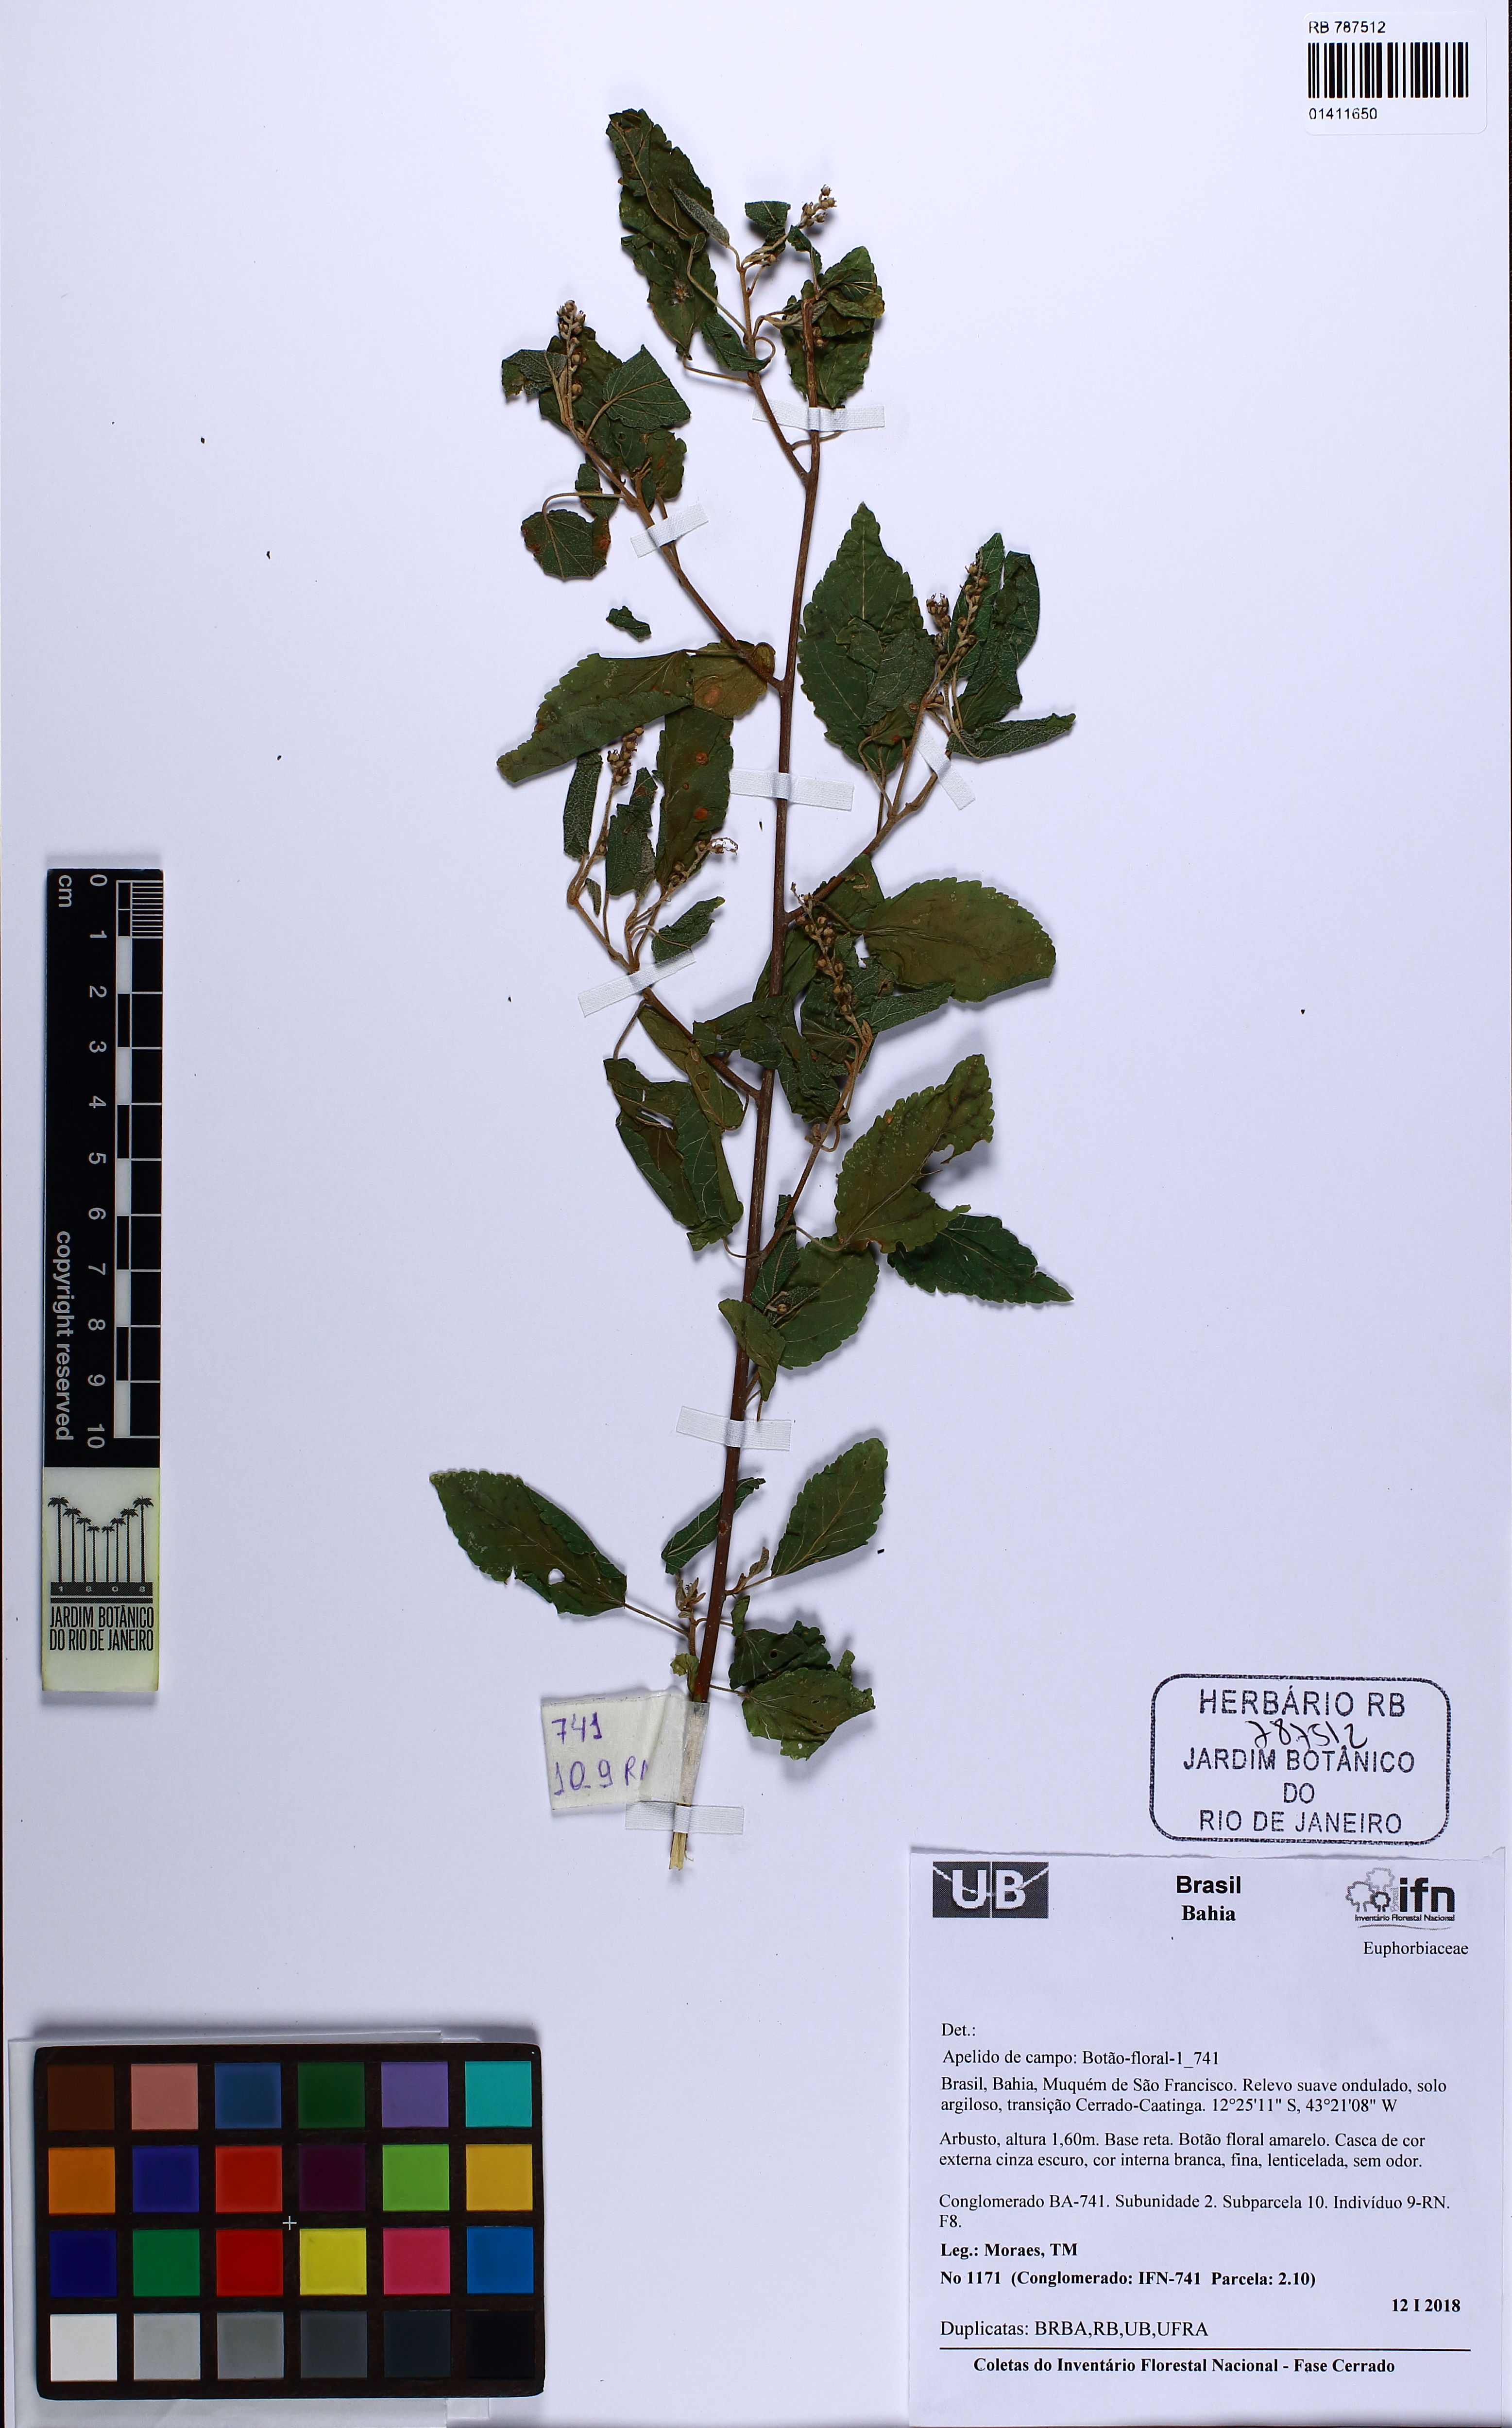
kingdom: Plantae
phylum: Tracheophyta
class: Magnoliopsida
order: Malpighiales
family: Euphorbiaceae
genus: Croton
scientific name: Croton
